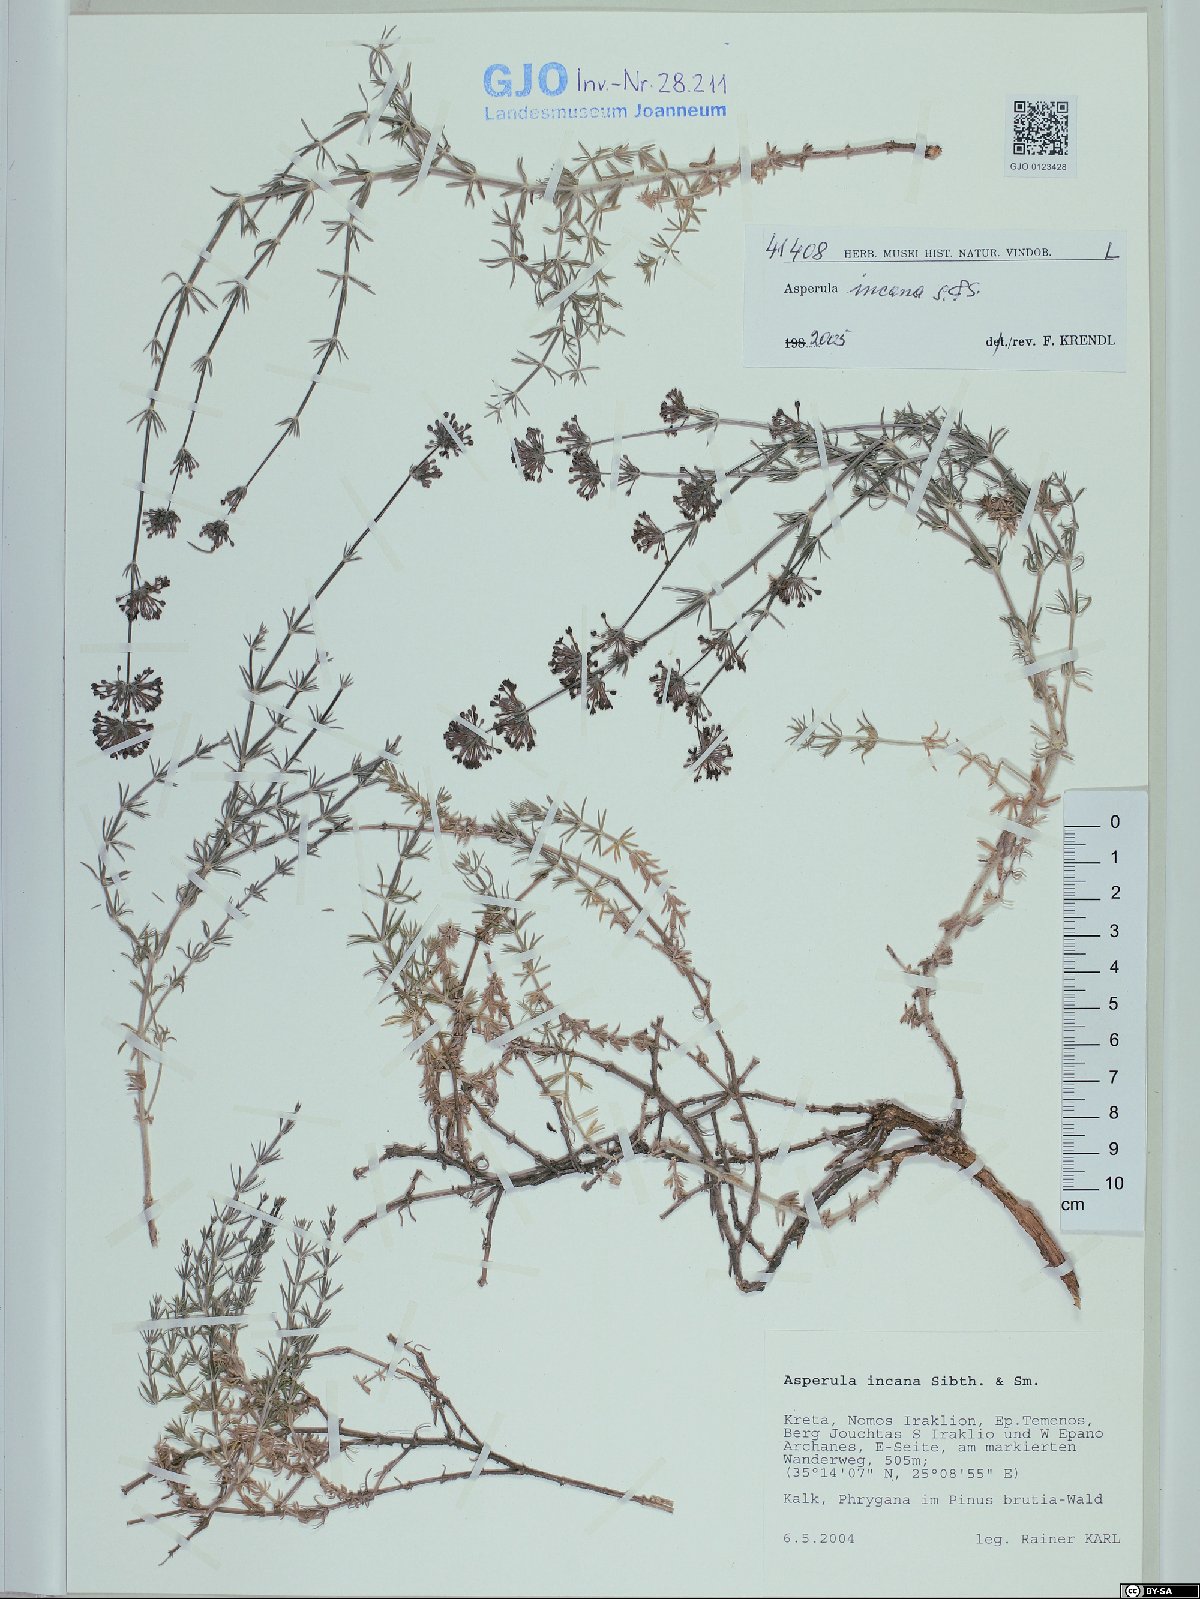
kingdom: Plantae
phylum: Tracheophyta
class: Magnoliopsida
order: Gentianales
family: Rubiaceae
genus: Hexaphylla
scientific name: Hexaphylla pubescens
